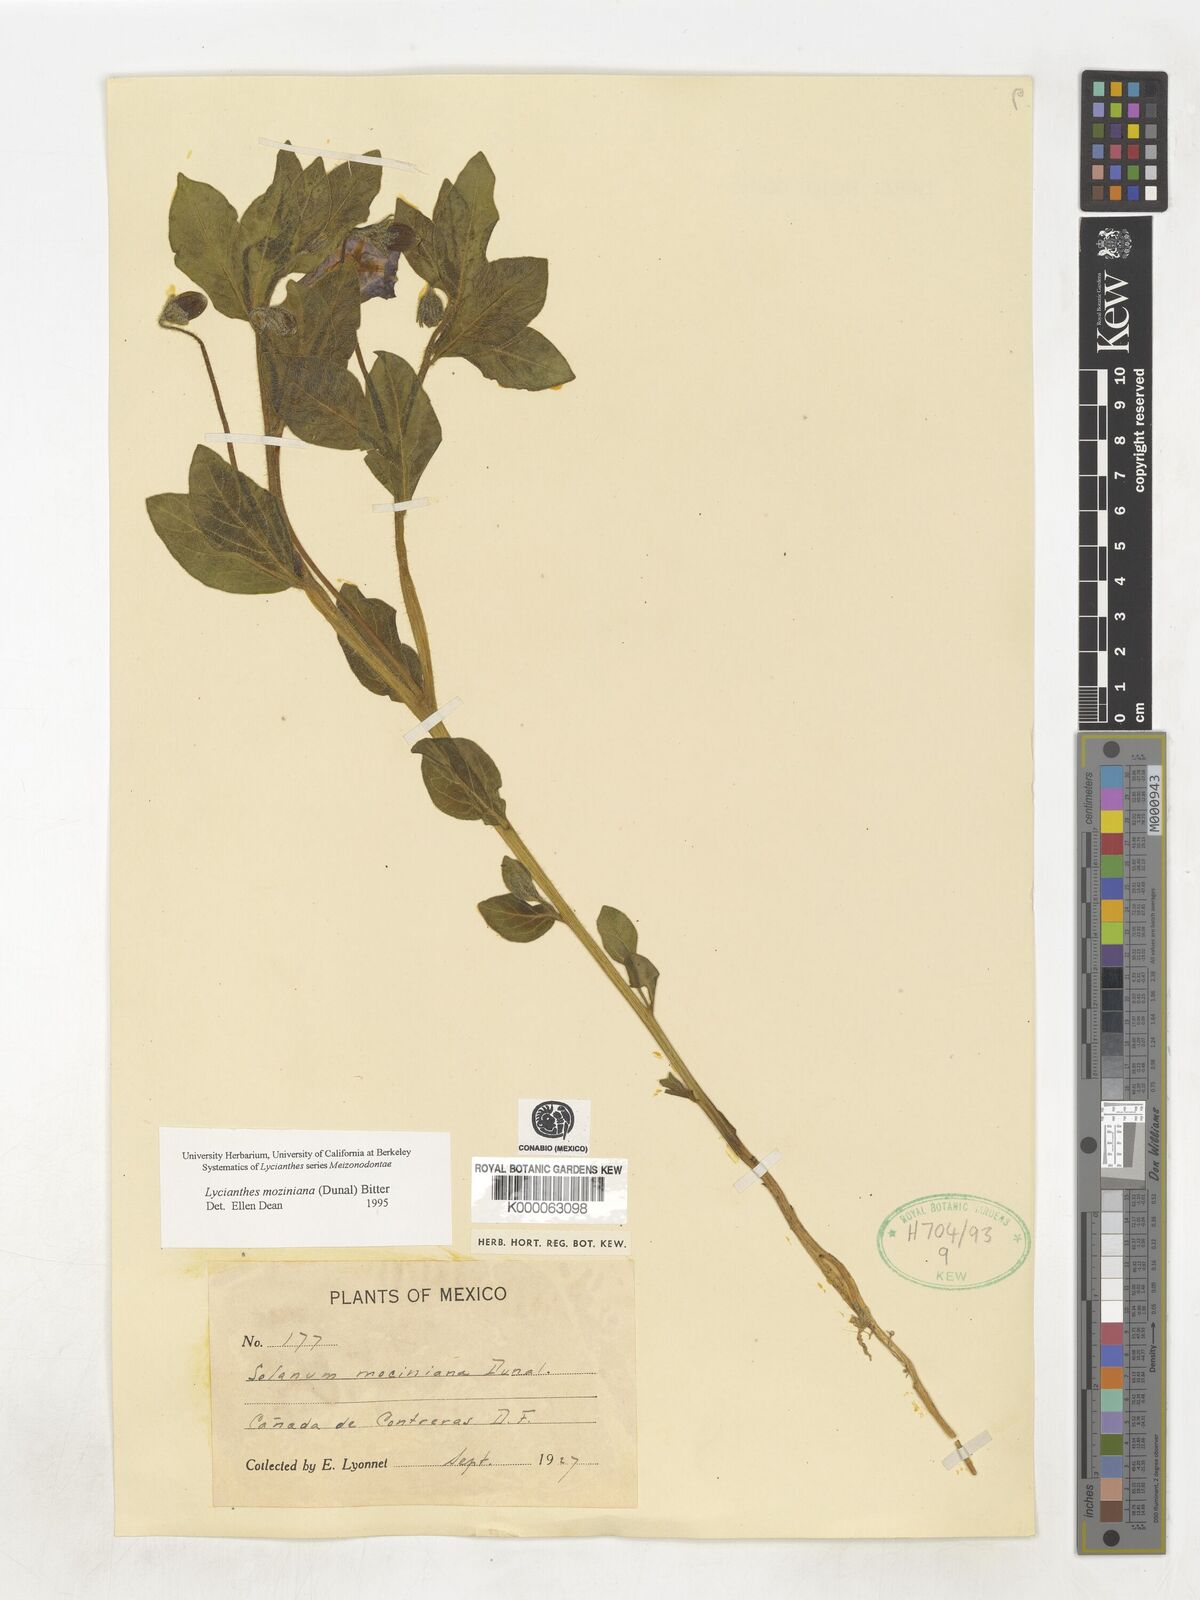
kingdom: Plantae
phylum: Tracheophyta
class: Magnoliopsida
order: Solanales
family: Solanaceae
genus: Lycianthes
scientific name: Lycianthes mozinoana
